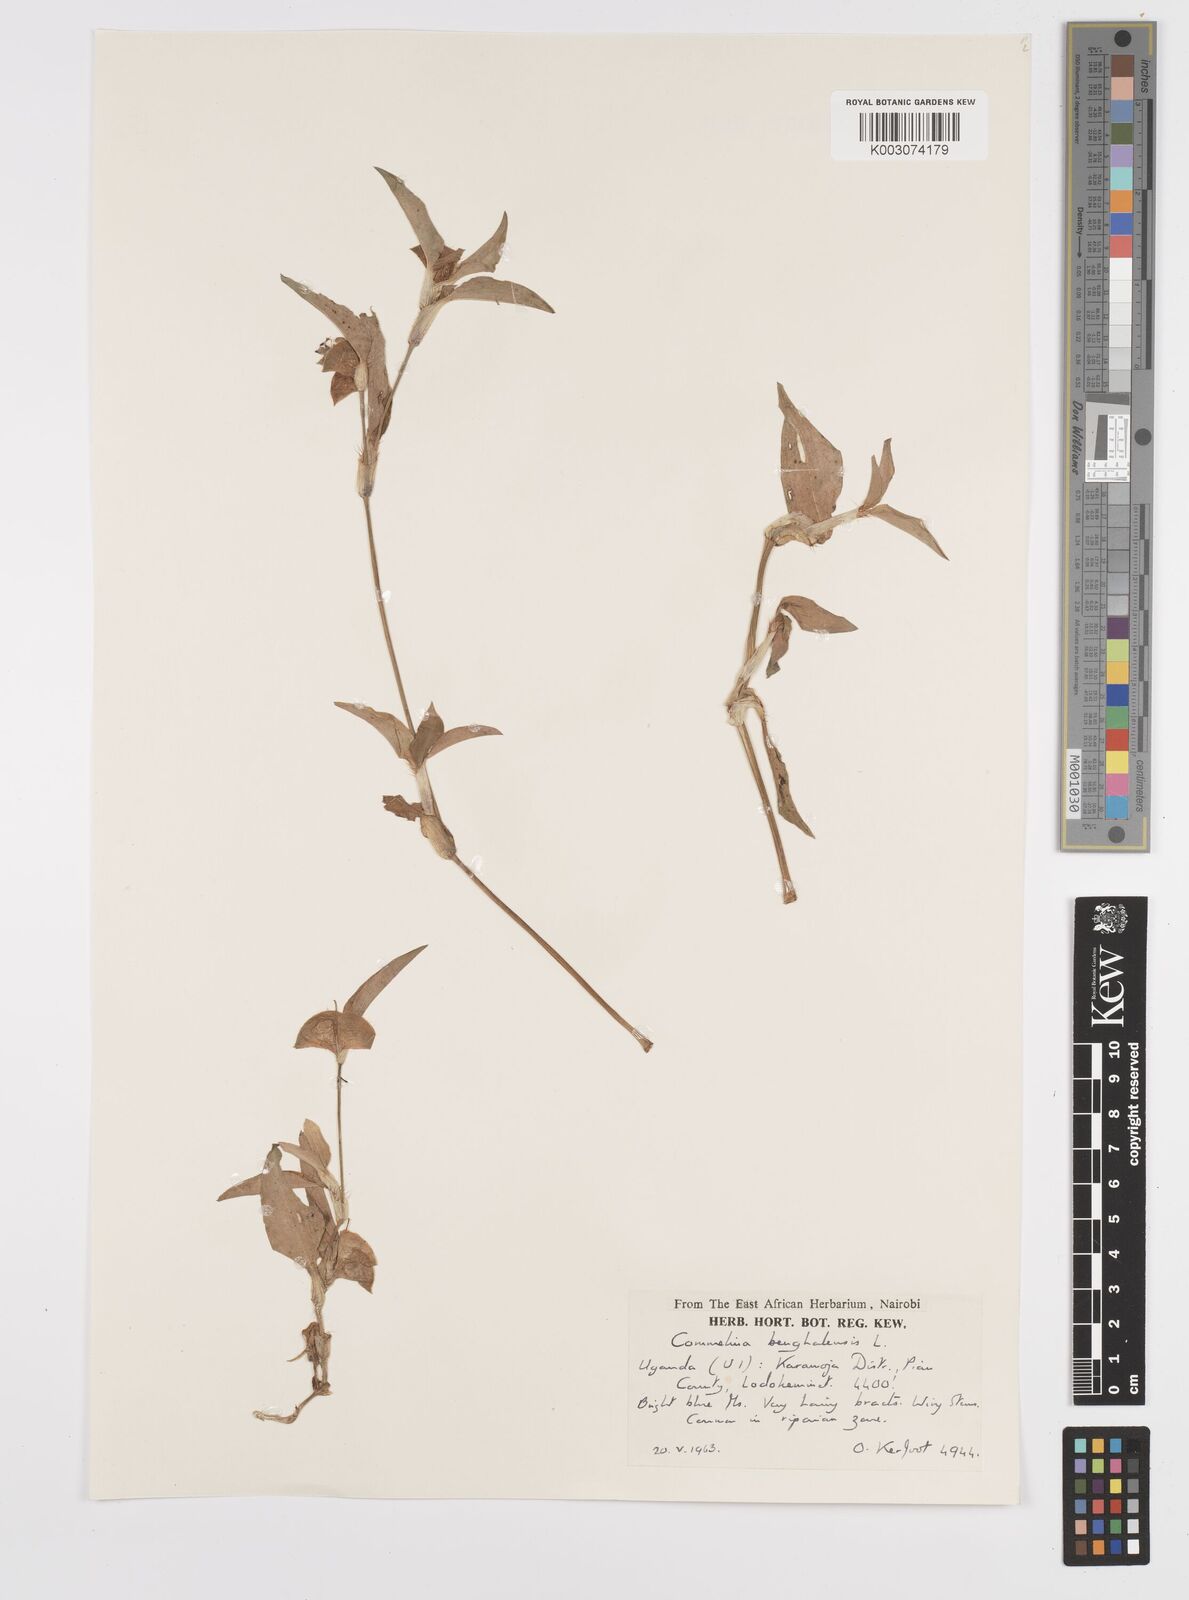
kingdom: Plantae
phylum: Tracheophyta
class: Liliopsida
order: Commelinales
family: Commelinaceae
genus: Commelina
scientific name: Commelina benghalensis
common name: Jio
